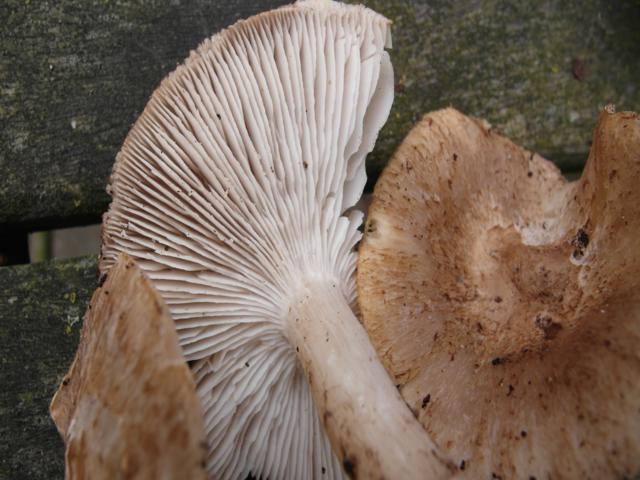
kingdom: Fungi
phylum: Basidiomycota
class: Agaricomycetes
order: Agaricales
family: Tricholomataceae
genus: Tricholoma
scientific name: Tricholoma scalpturatum
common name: gulplettet ridderhat
